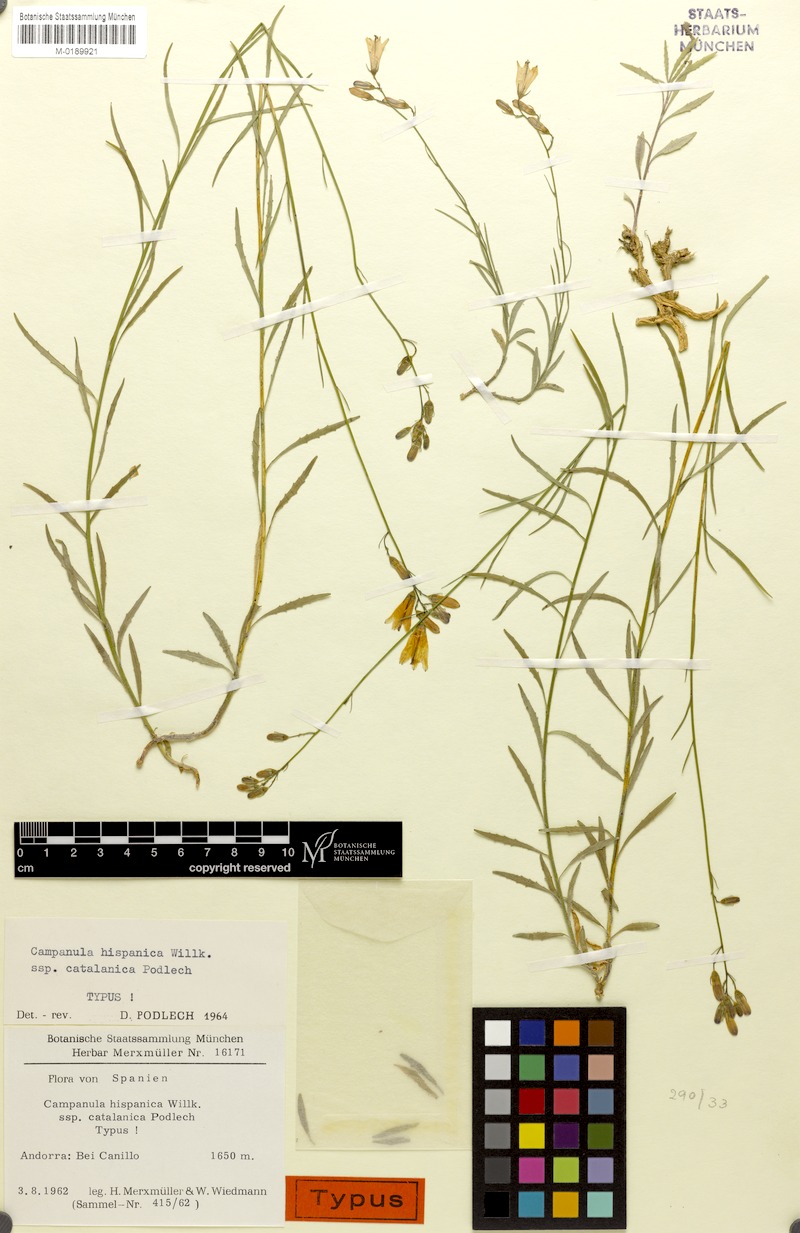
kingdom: Plantae
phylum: Tracheophyta
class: Magnoliopsida
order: Asterales
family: Campanulaceae
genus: Campanula
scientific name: Campanula macrorhiza
